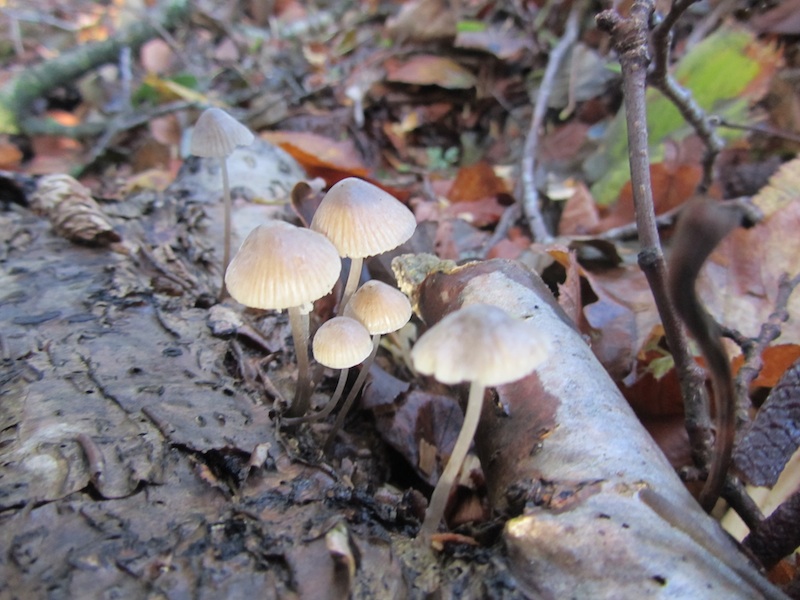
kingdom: Fungi
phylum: Basidiomycota
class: Agaricomycetes
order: Agaricales
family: Mycenaceae
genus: Mycena
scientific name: Mycena abramsii
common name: sommer-huesvamp
